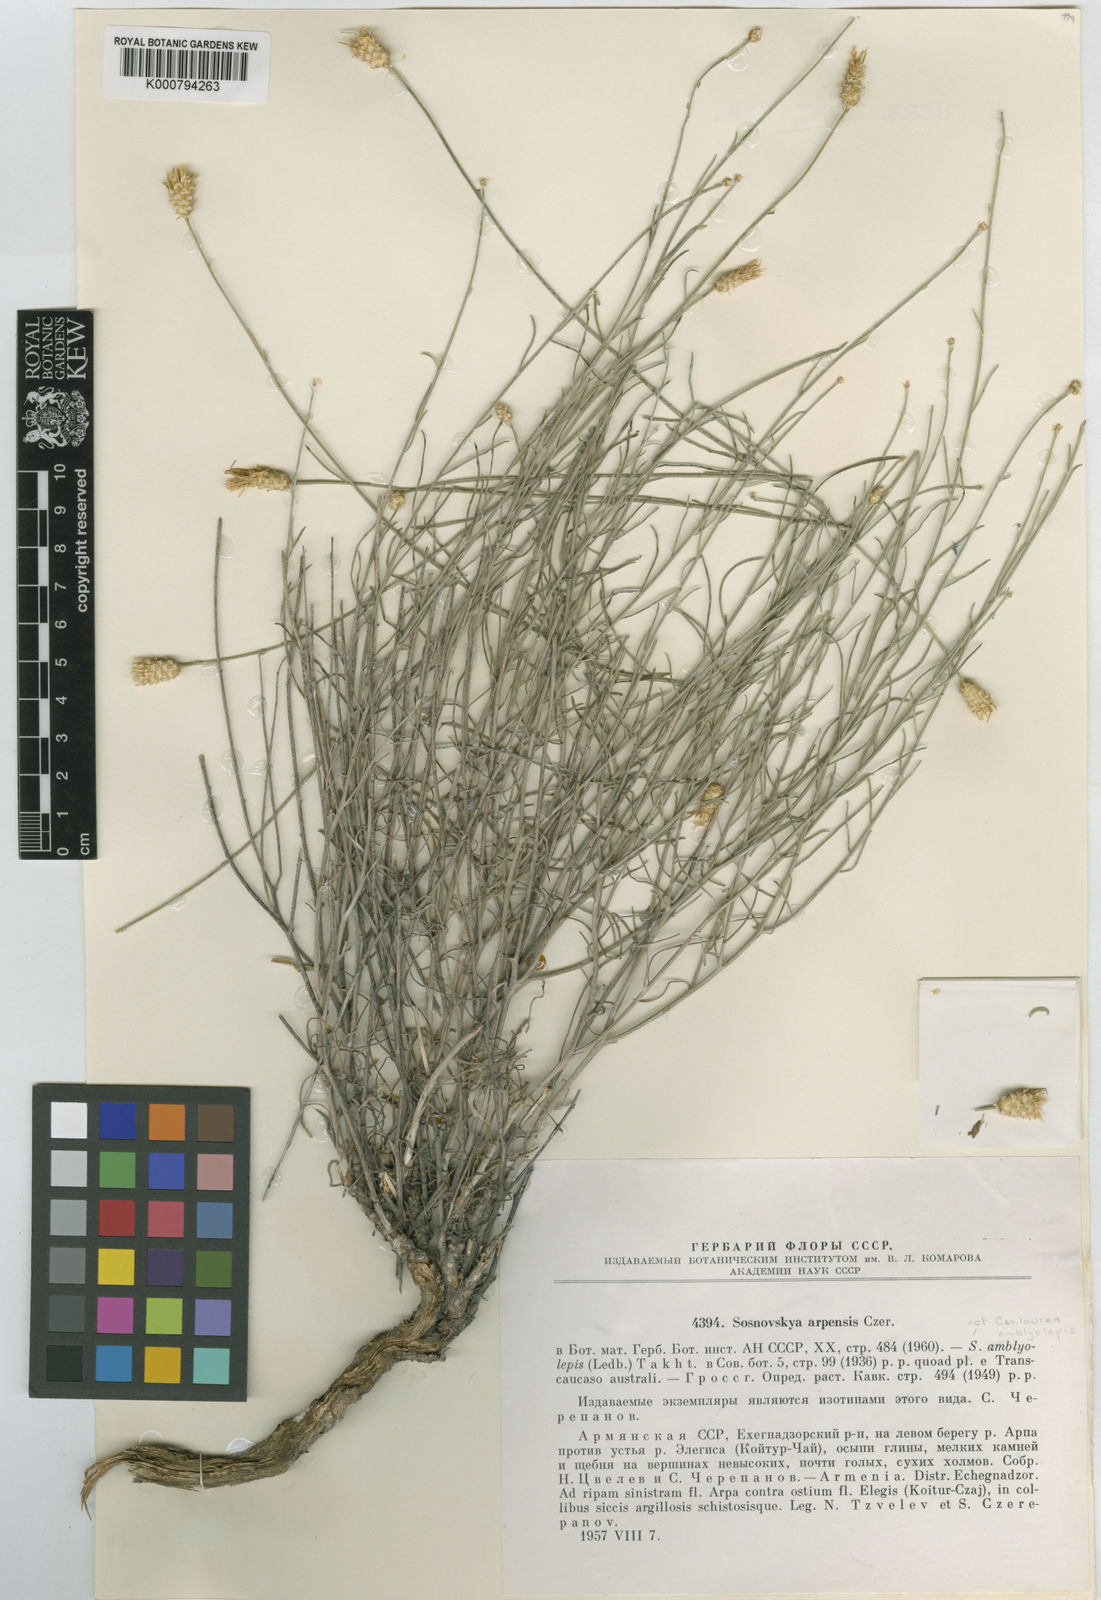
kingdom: Plantae
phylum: Tracheophyta
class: Magnoliopsida
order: Asterales
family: Asteraceae
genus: Psephellus
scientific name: Psephellus arpensis
